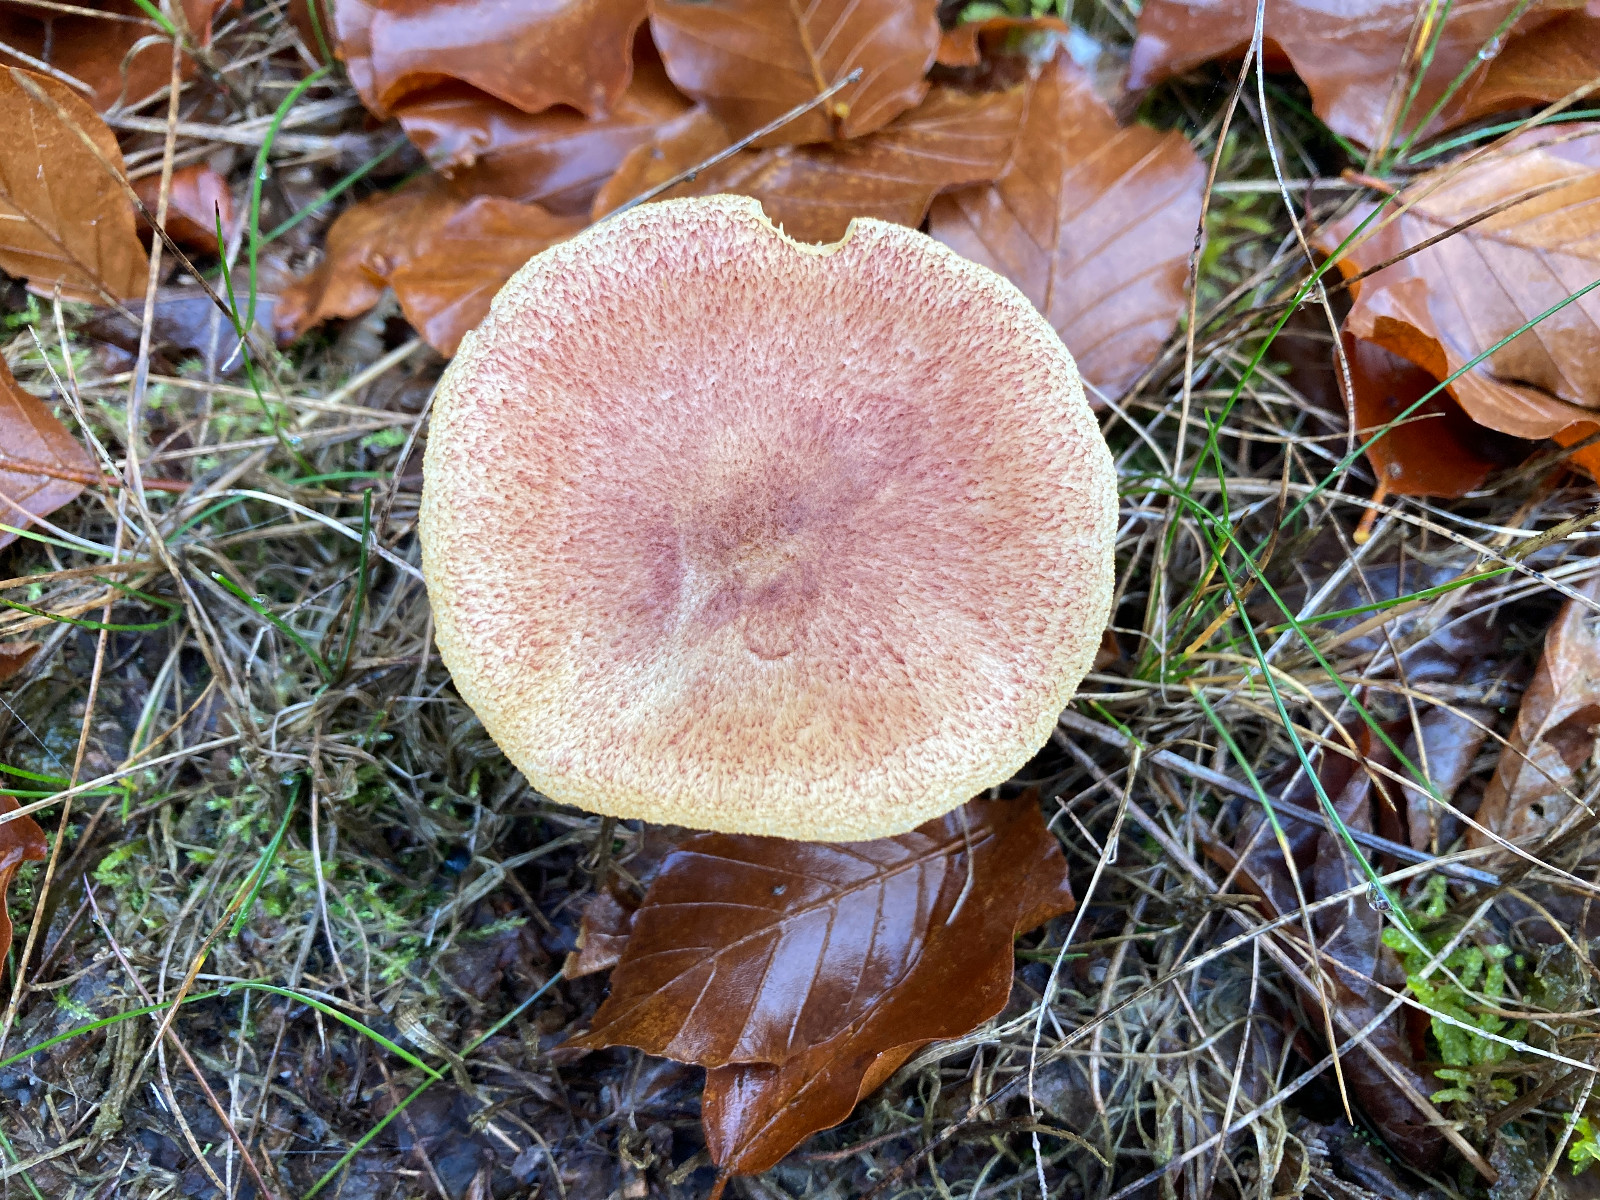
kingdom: Fungi
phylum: Basidiomycota
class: Agaricomycetes
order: Agaricales
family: Tricholomataceae
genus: Tricholomopsis
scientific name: Tricholomopsis rutilans
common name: purpur-væbnerhat
